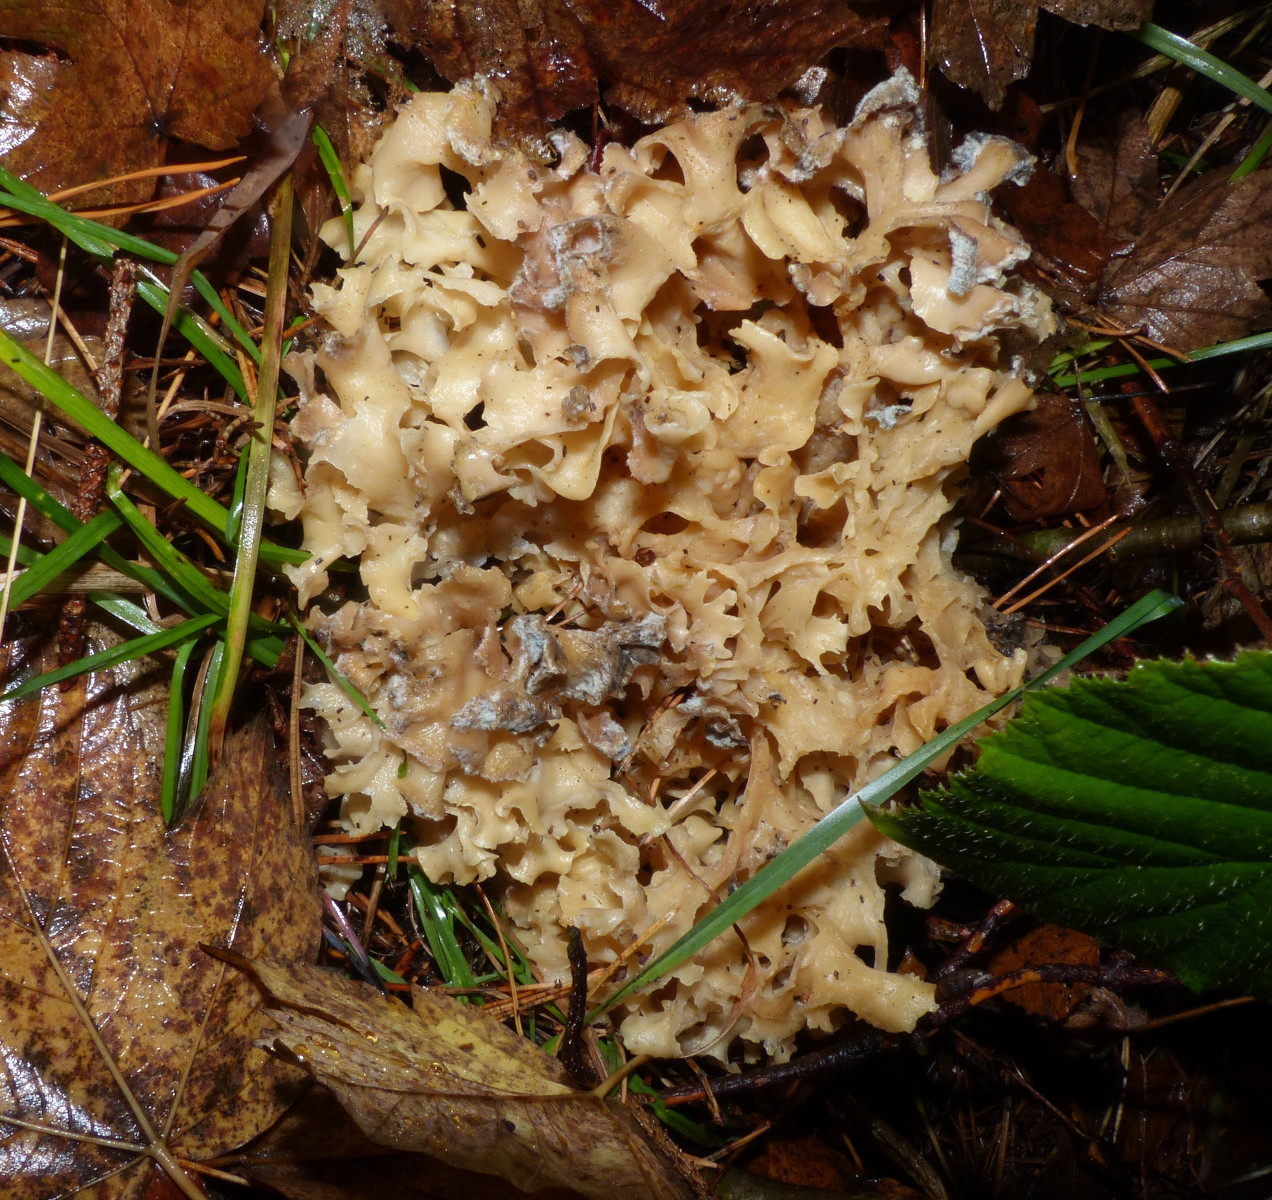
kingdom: Fungi
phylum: Basidiomycota
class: Agaricomycetes
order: Polyporales
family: Sparassidaceae
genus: Sparassis
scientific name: Sparassis crispa
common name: kruset blomkålssvamp
